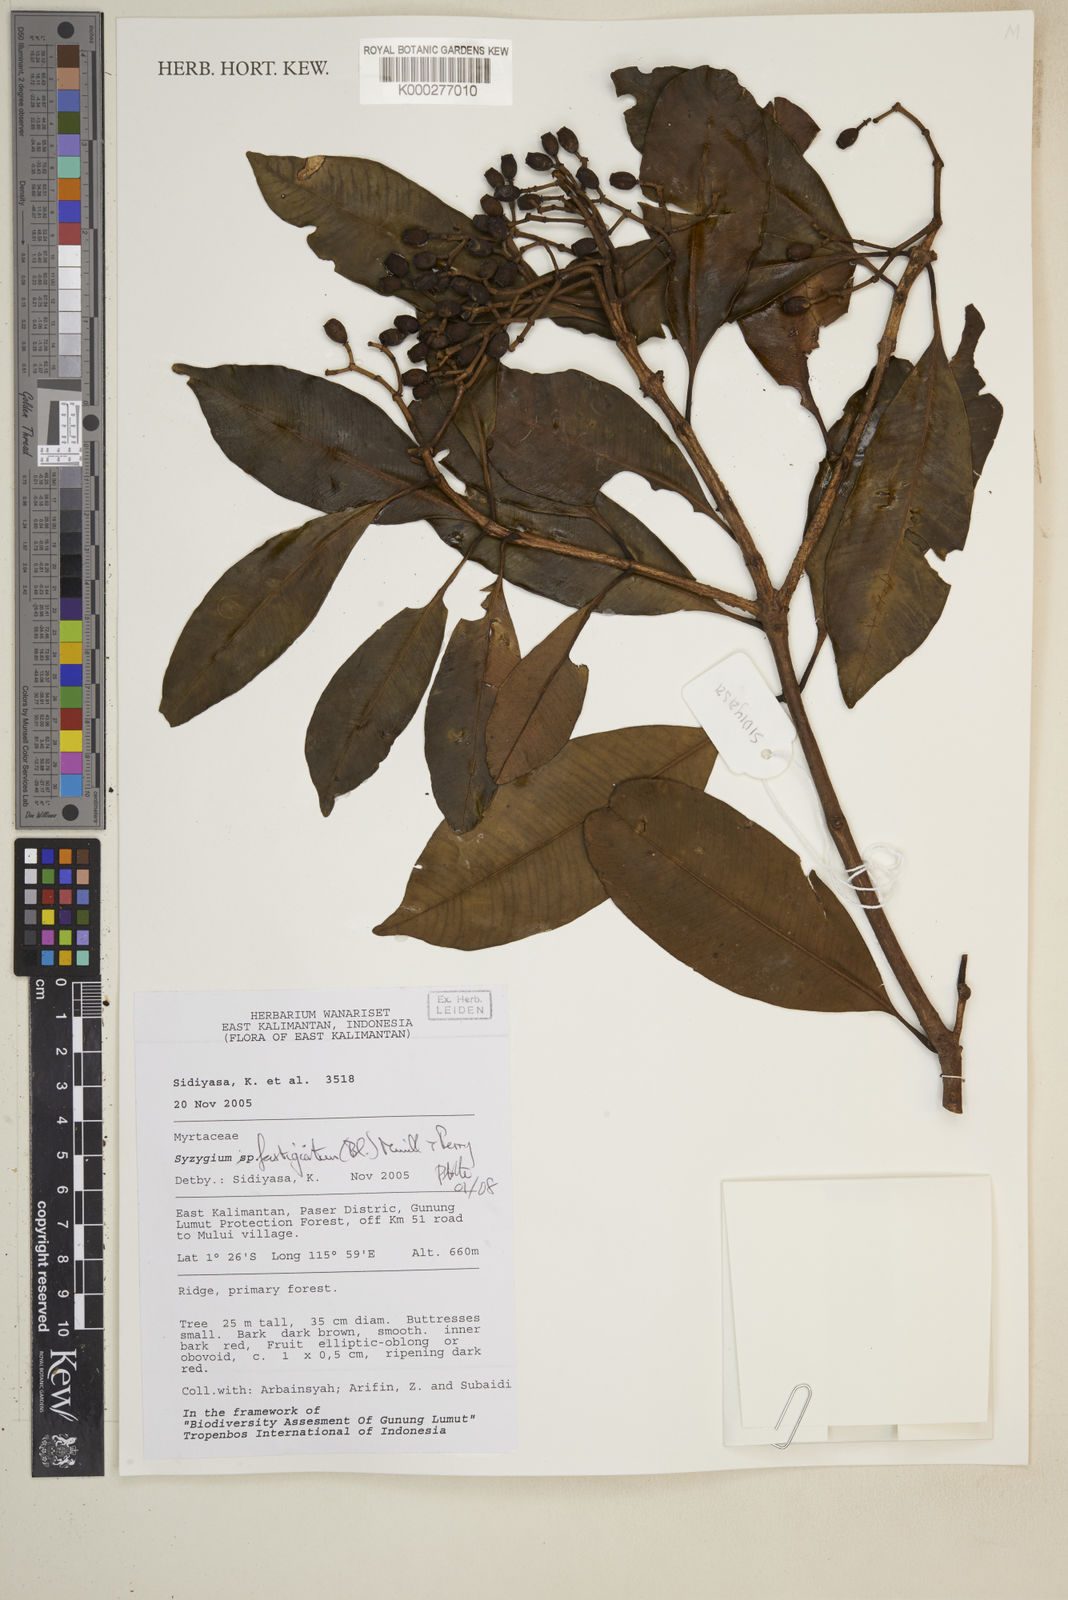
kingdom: Plantae
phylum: Tracheophyta
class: Magnoliopsida
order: Myrtales
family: Myrtaceae
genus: Syzygium
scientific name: Syzygium
